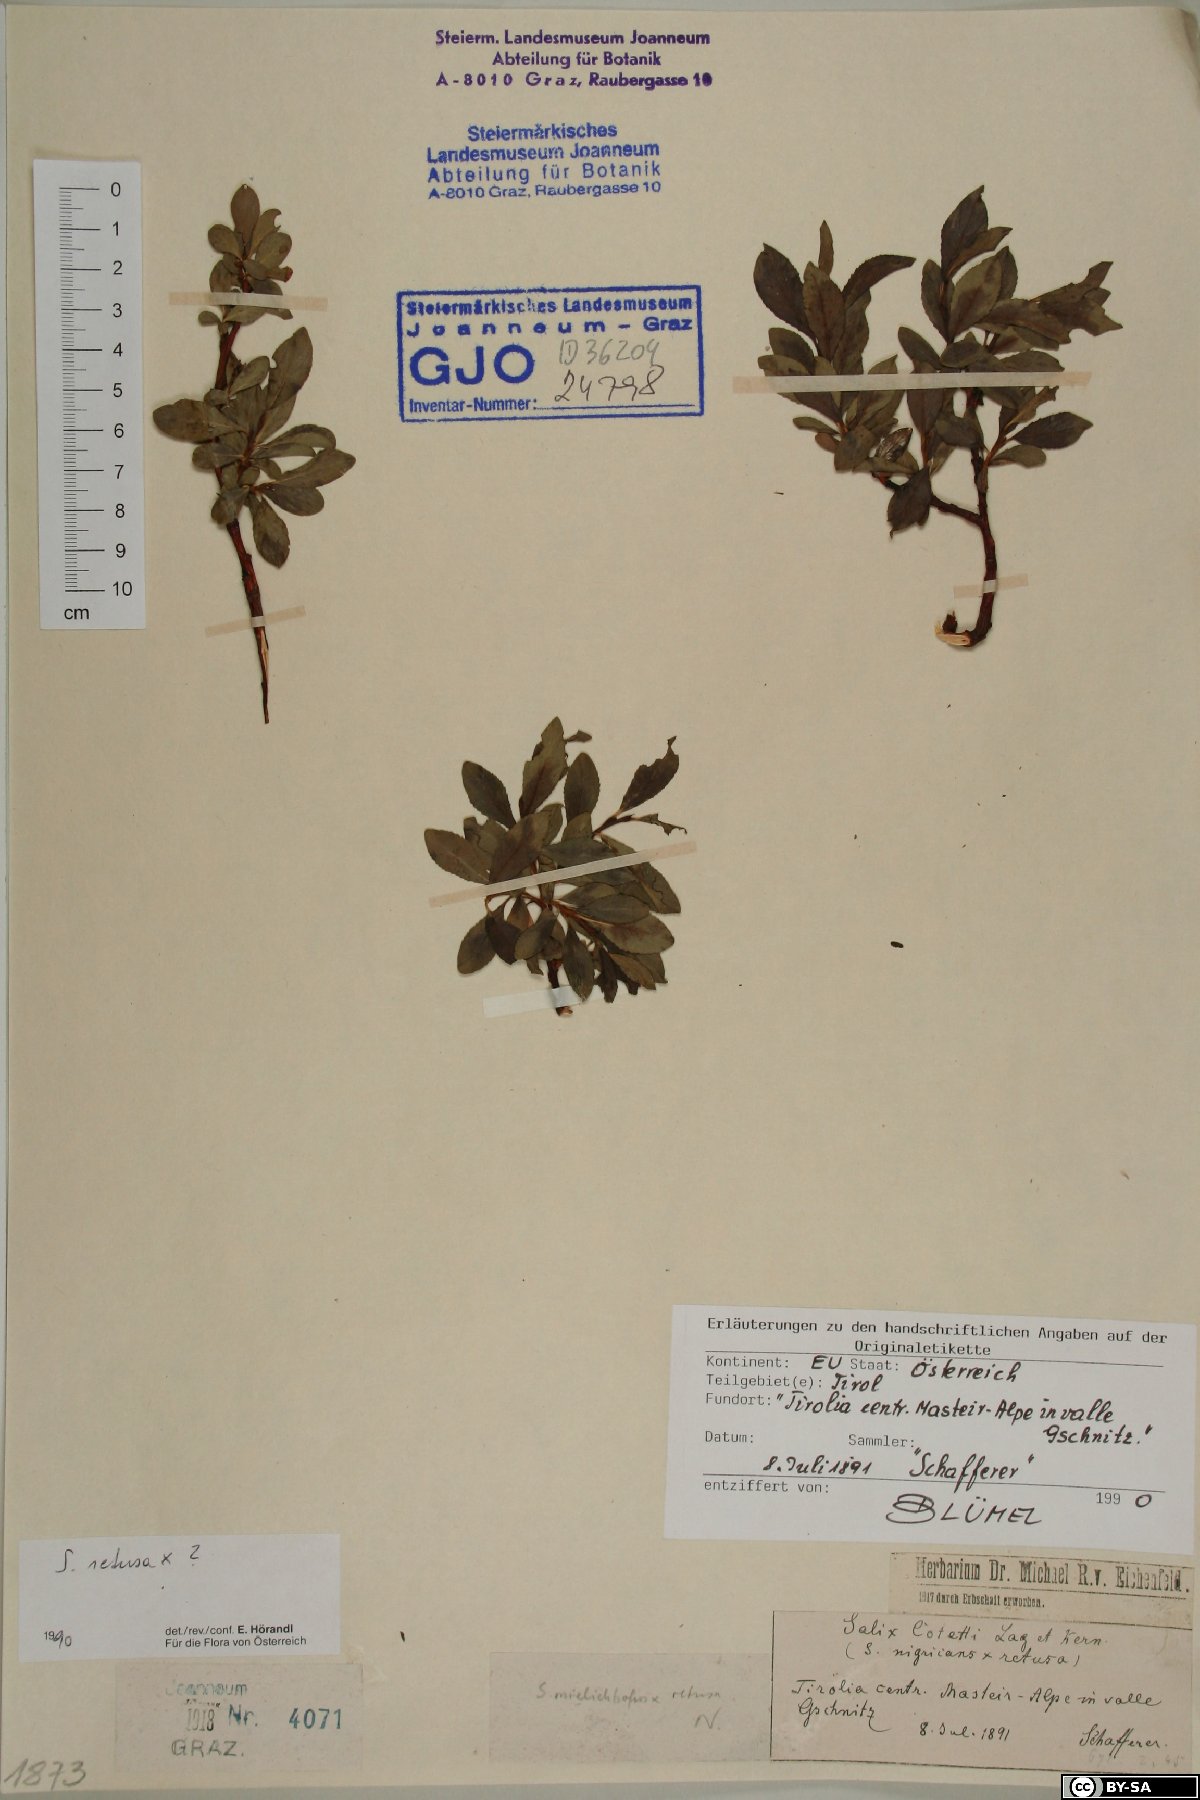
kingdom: Plantae
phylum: Tracheophyta
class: Magnoliopsida
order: Malpighiales
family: Salicaceae
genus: Salix
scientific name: Salix retusa
